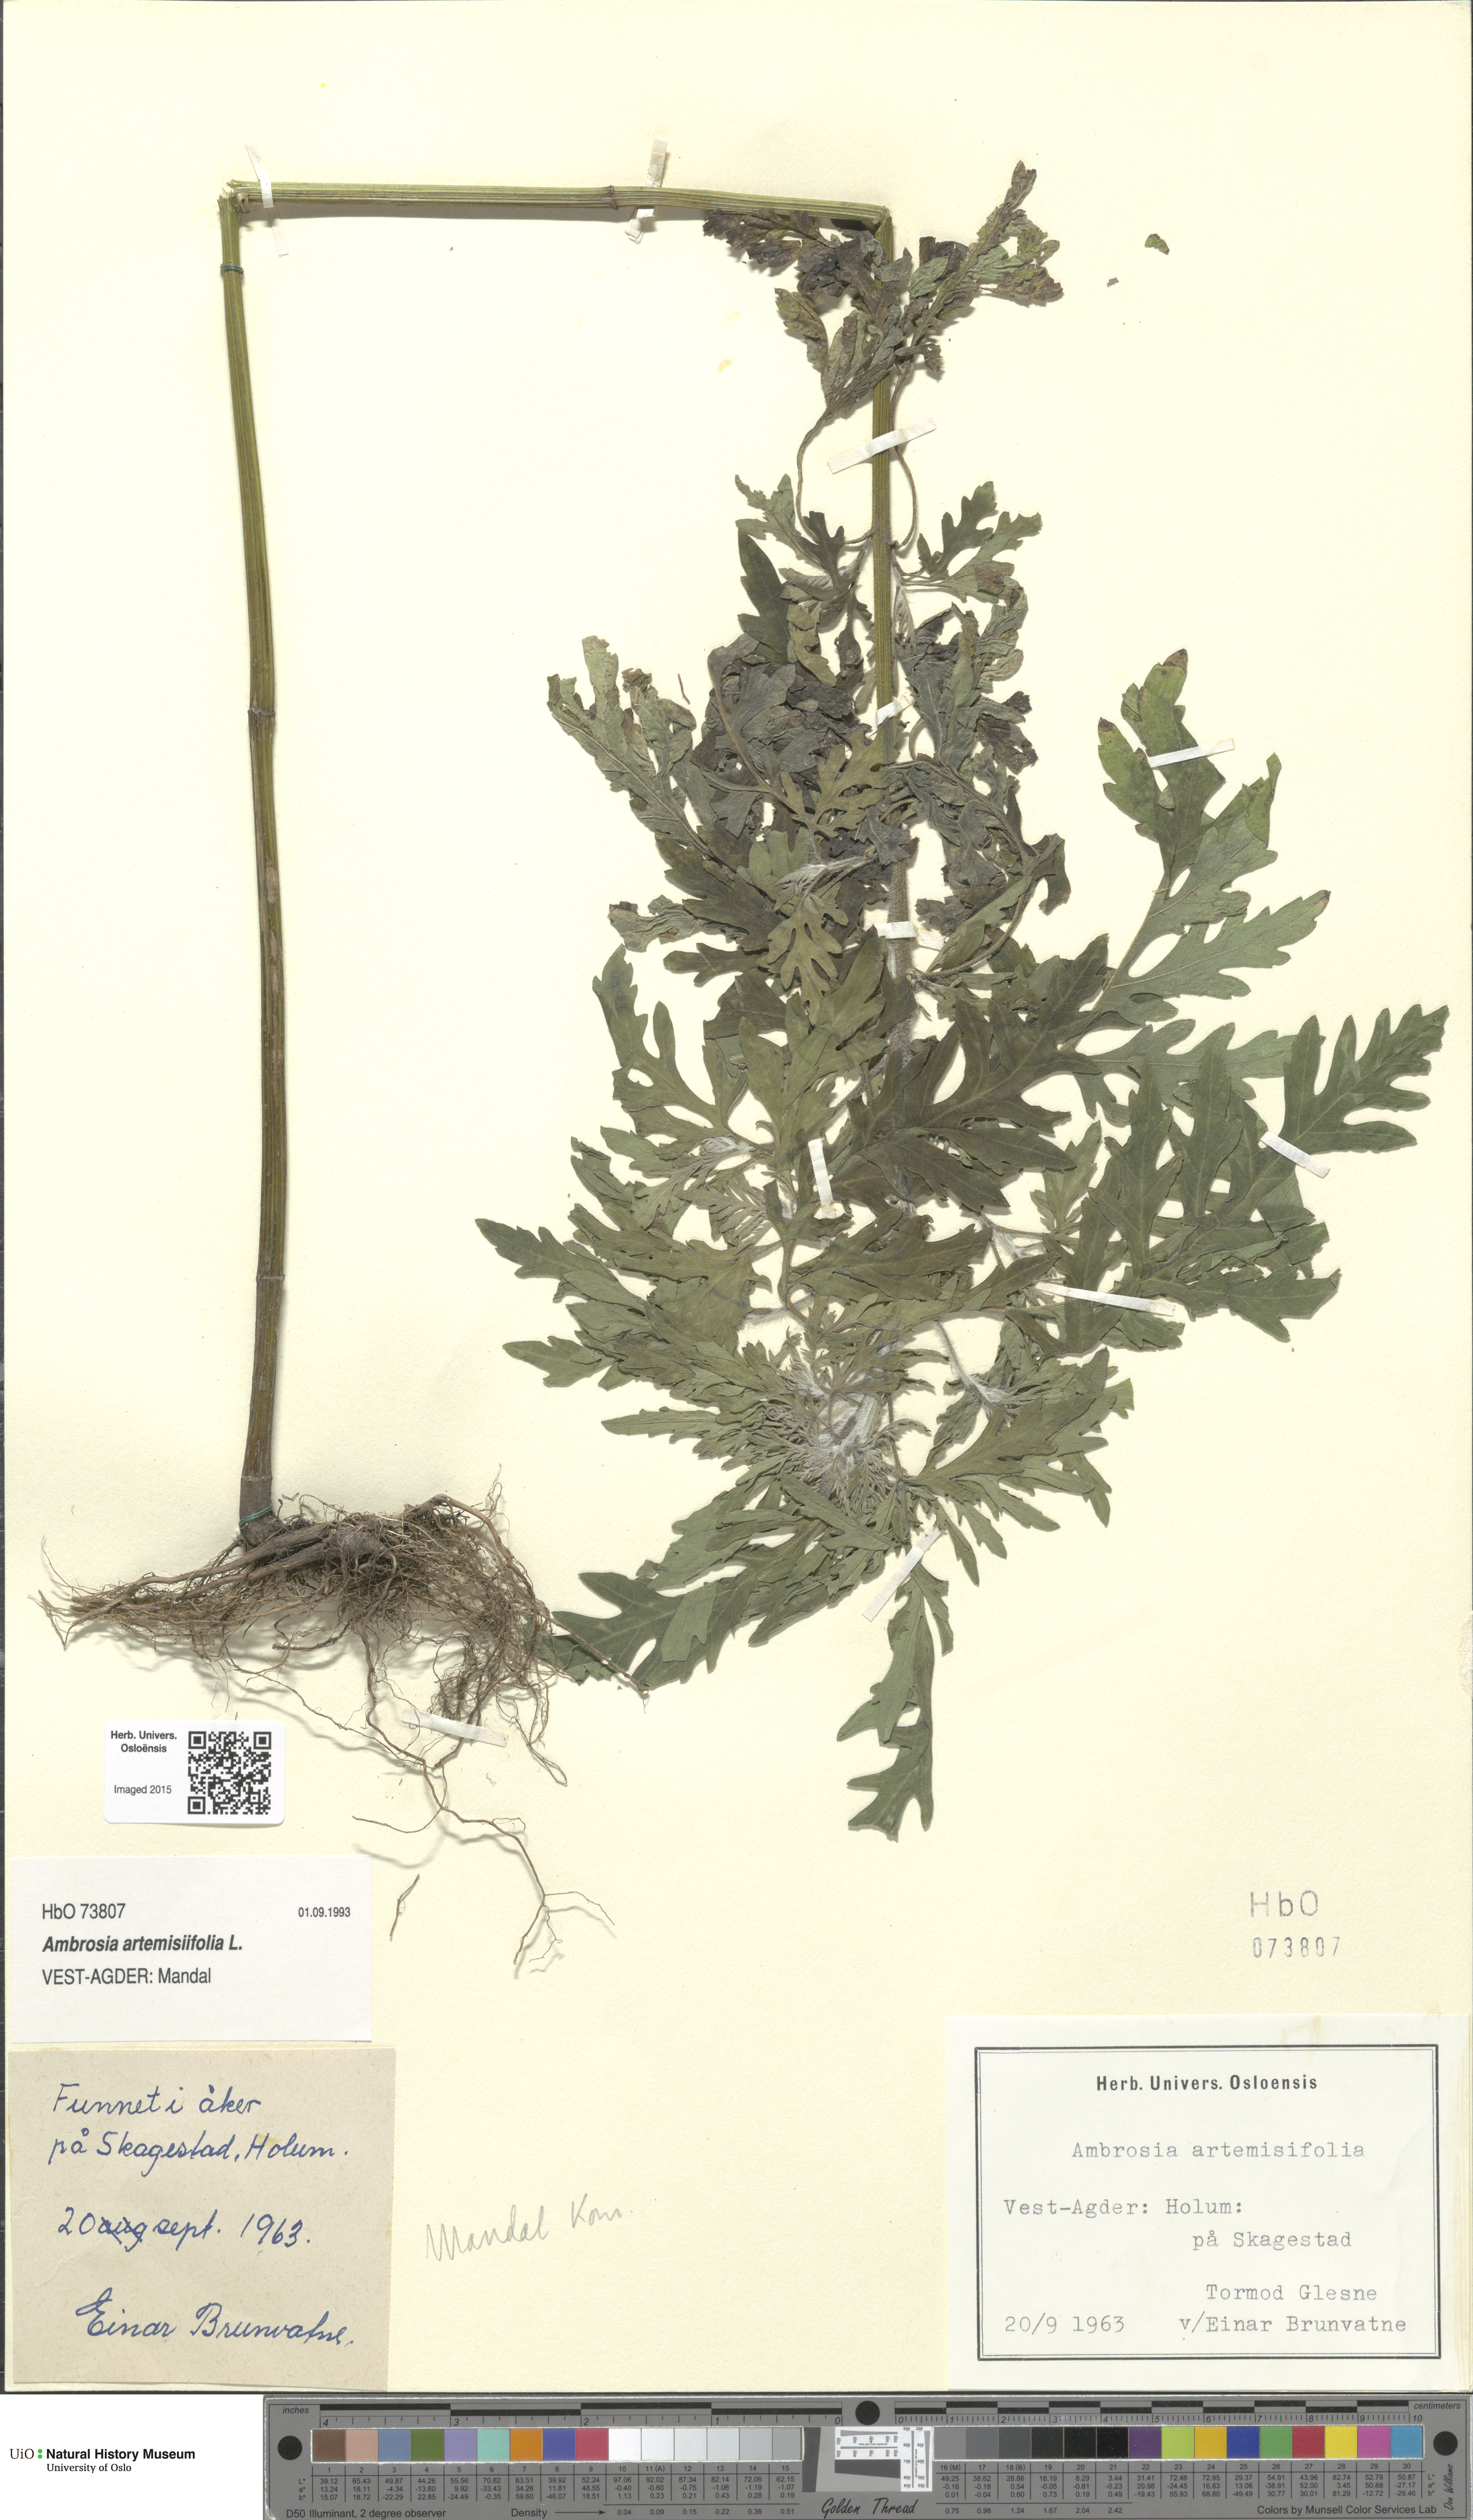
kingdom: Plantae
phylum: Tracheophyta
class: Magnoliopsida
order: Asterales
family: Asteraceae
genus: Ambrosia
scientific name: Ambrosia artemisiifolia
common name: Annual ragweed
